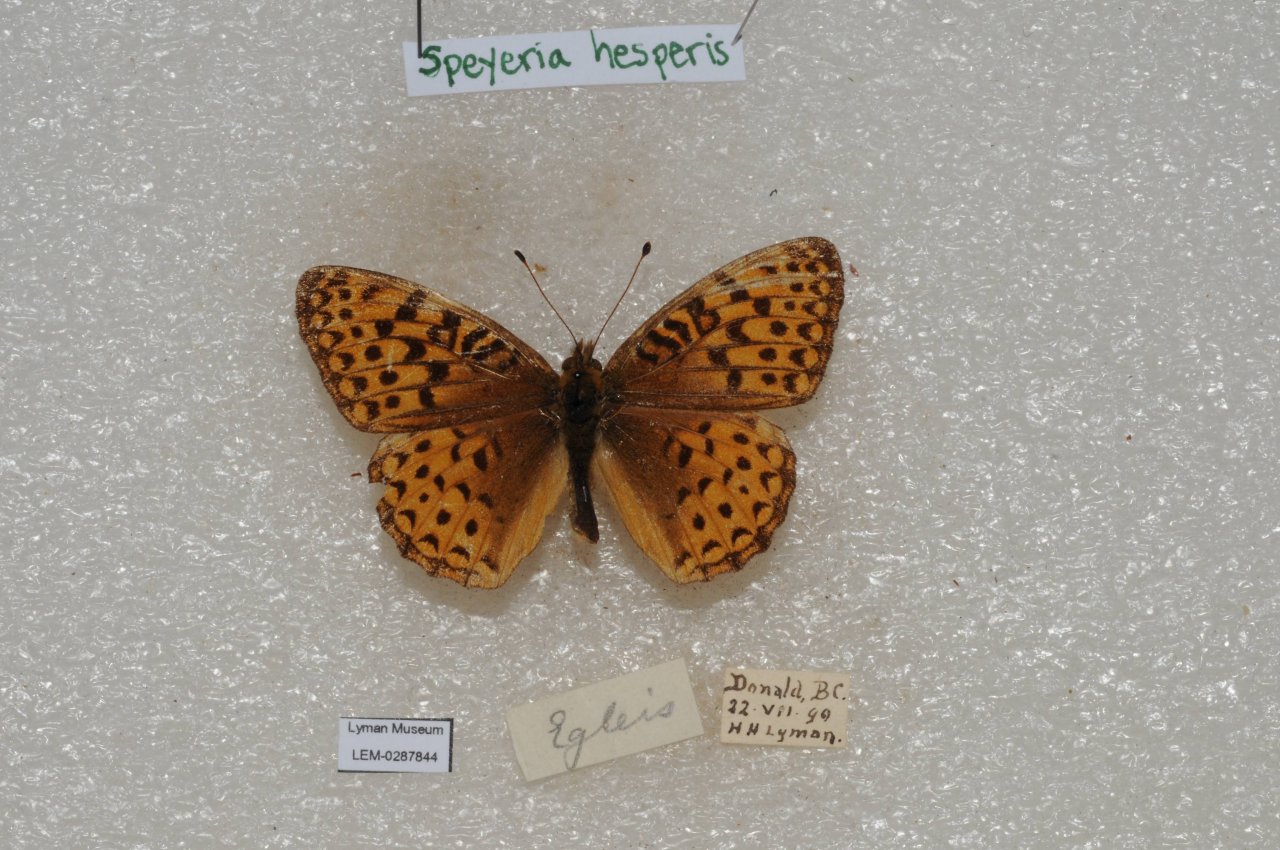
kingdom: Animalia
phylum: Arthropoda
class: Insecta
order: Lepidoptera
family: Nymphalidae
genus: Speyeria
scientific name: Speyeria atlantis
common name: Northwestern Fritillary
